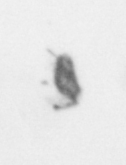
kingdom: Animalia
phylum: Arthropoda
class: Copepoda
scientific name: Copepoda
